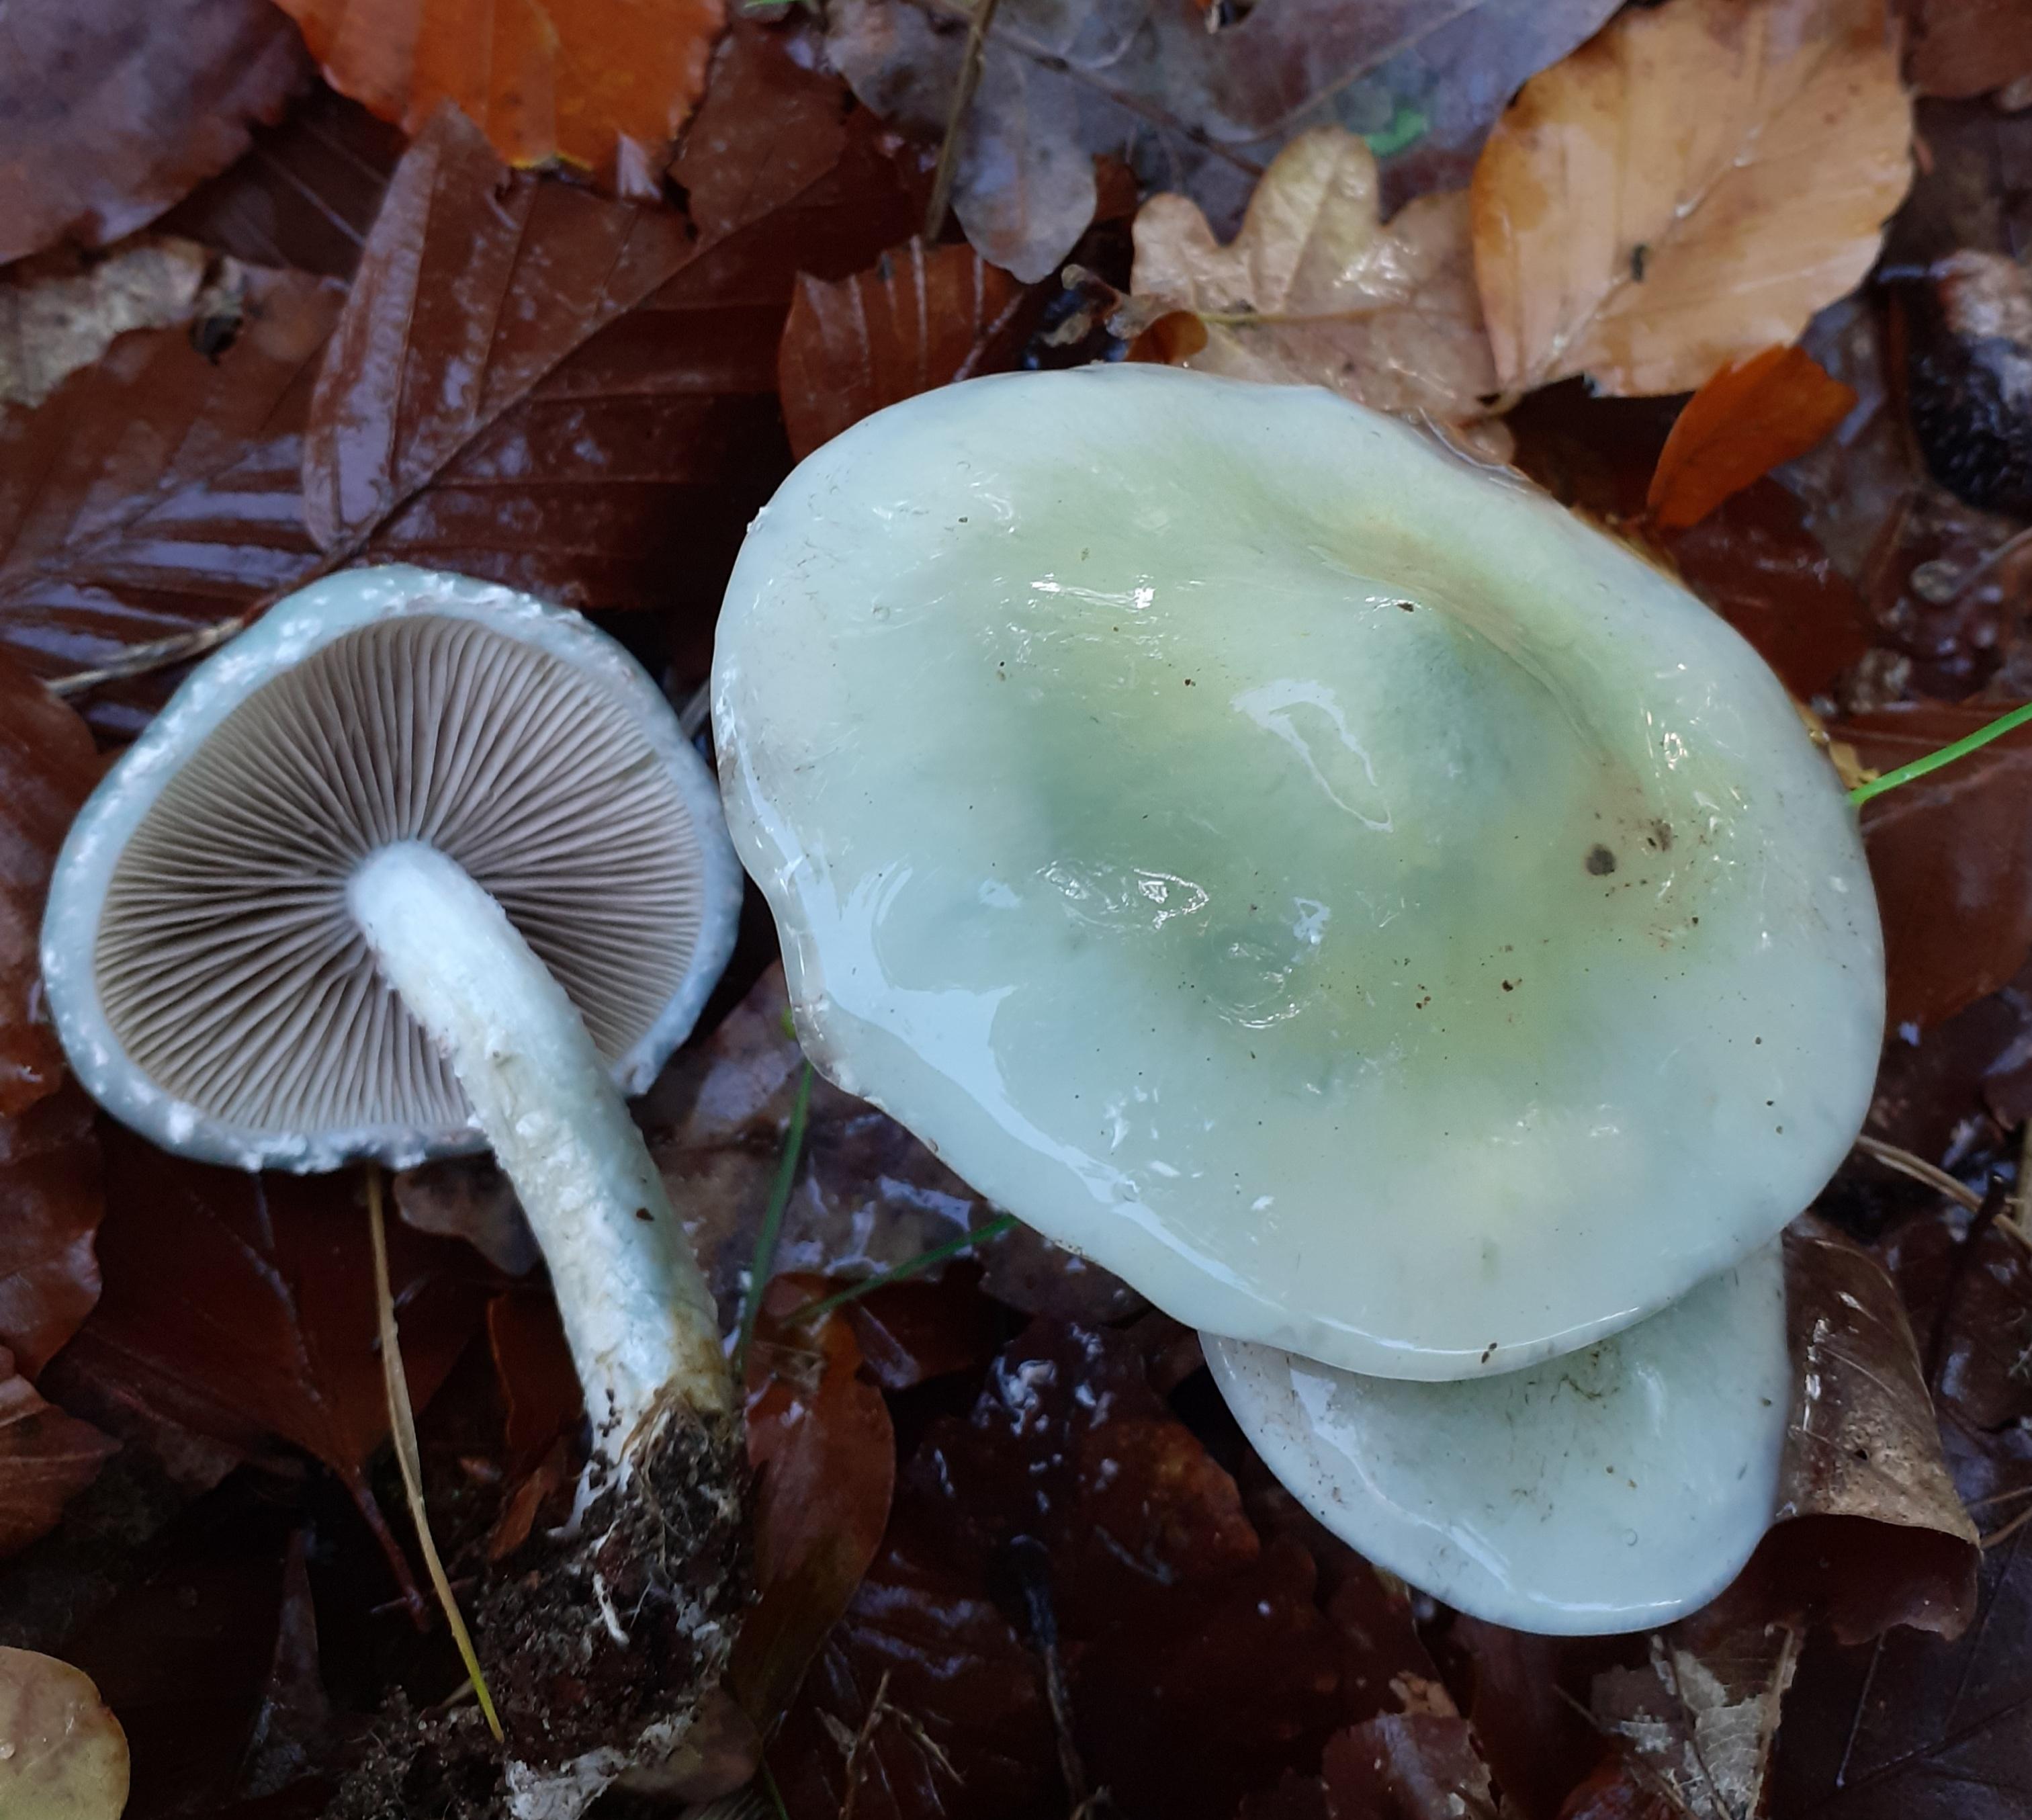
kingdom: Fungi
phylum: Basidiomycota
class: Agaricomycetes
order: Agaricales
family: Strophariaceae
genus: Stropharia
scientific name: Stropharia cyanea
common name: blågrøn bredblad
